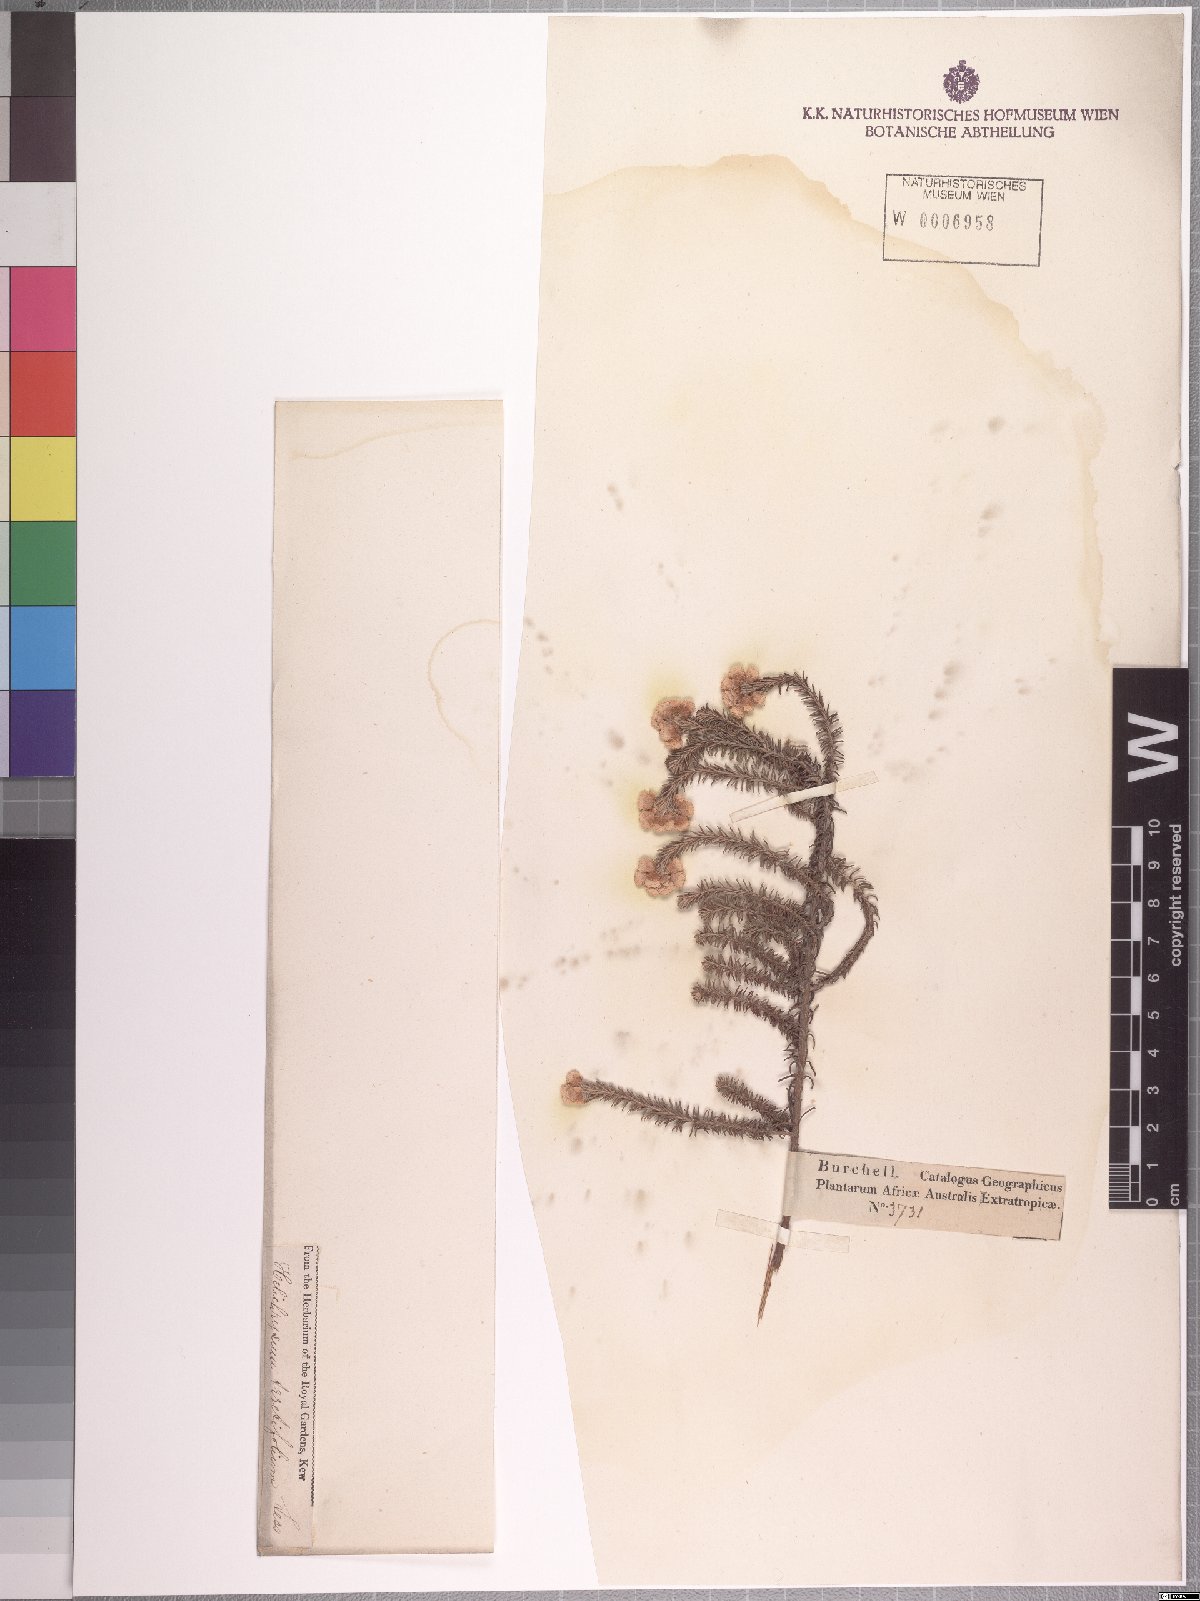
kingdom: Plantae
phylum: Tracheophyta
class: Magnoliopsida
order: Asterales
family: Asteraceae
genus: Helichrysum
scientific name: Helichrysum teretifolium
